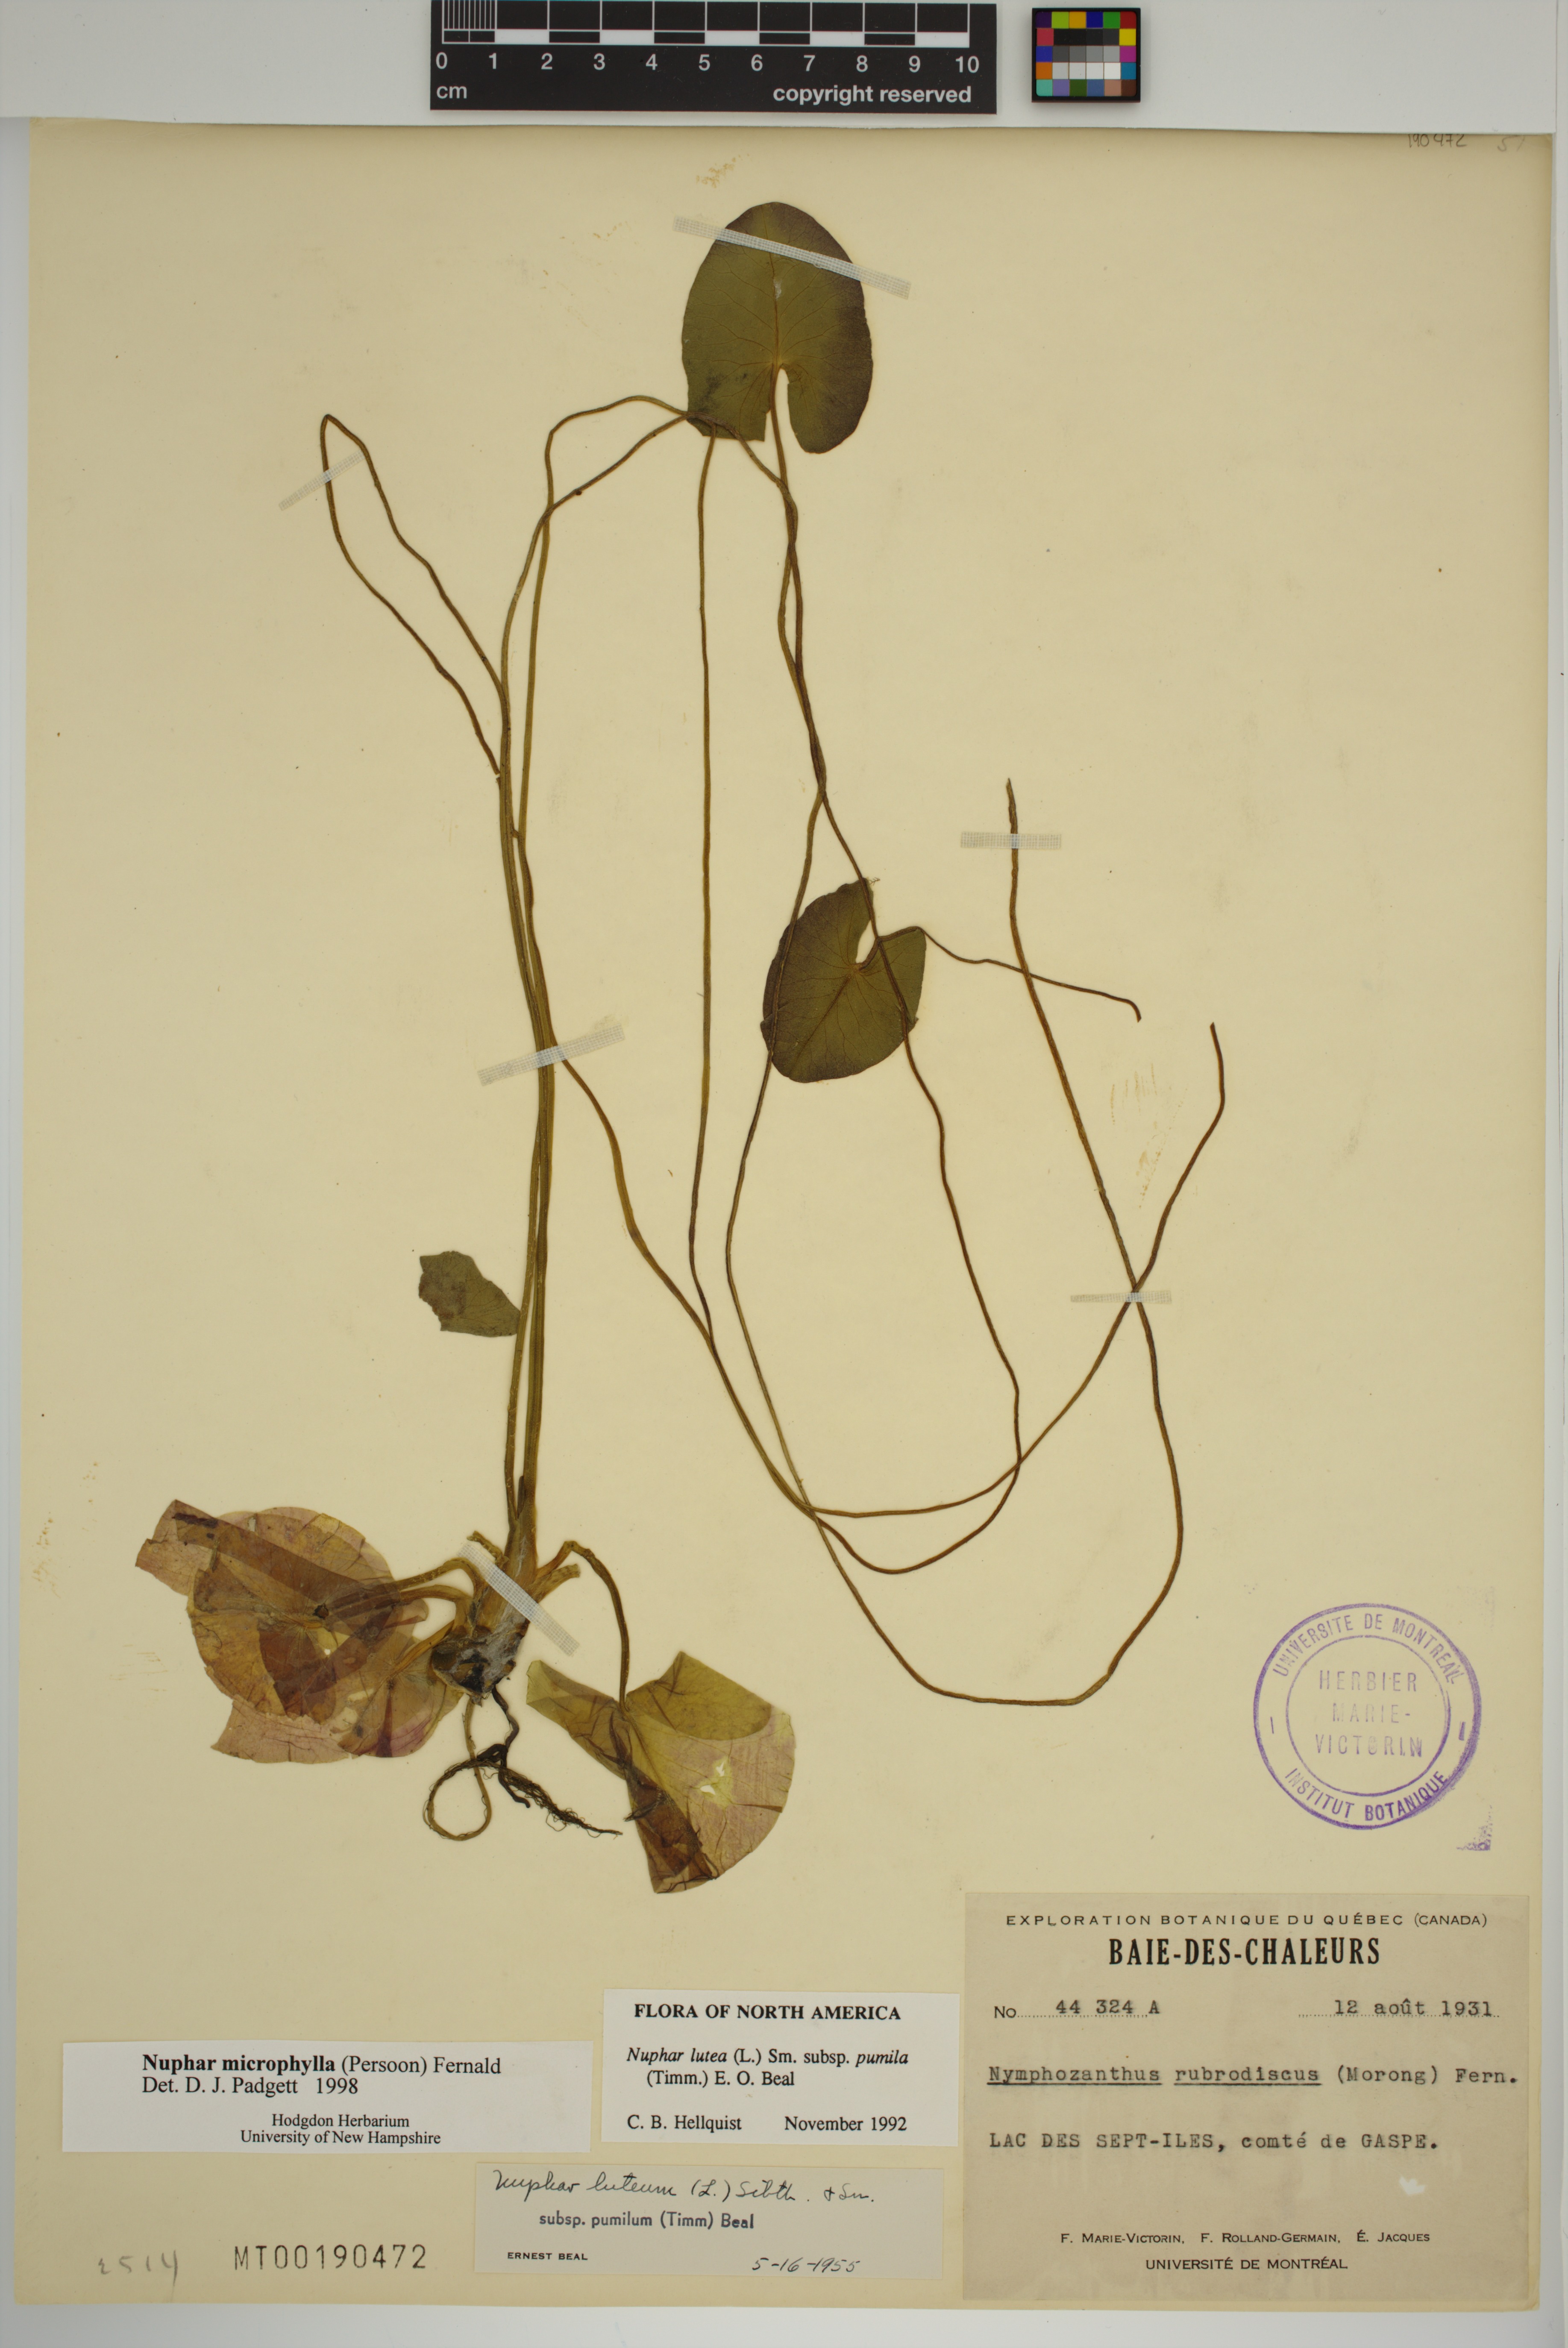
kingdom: Plantae
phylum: Tracheophyta
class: Magnoliopsida
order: Nymphaeales
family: Nymphaeaceae
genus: Nuphar
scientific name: Nuphar microphylla
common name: Small pond-lily
